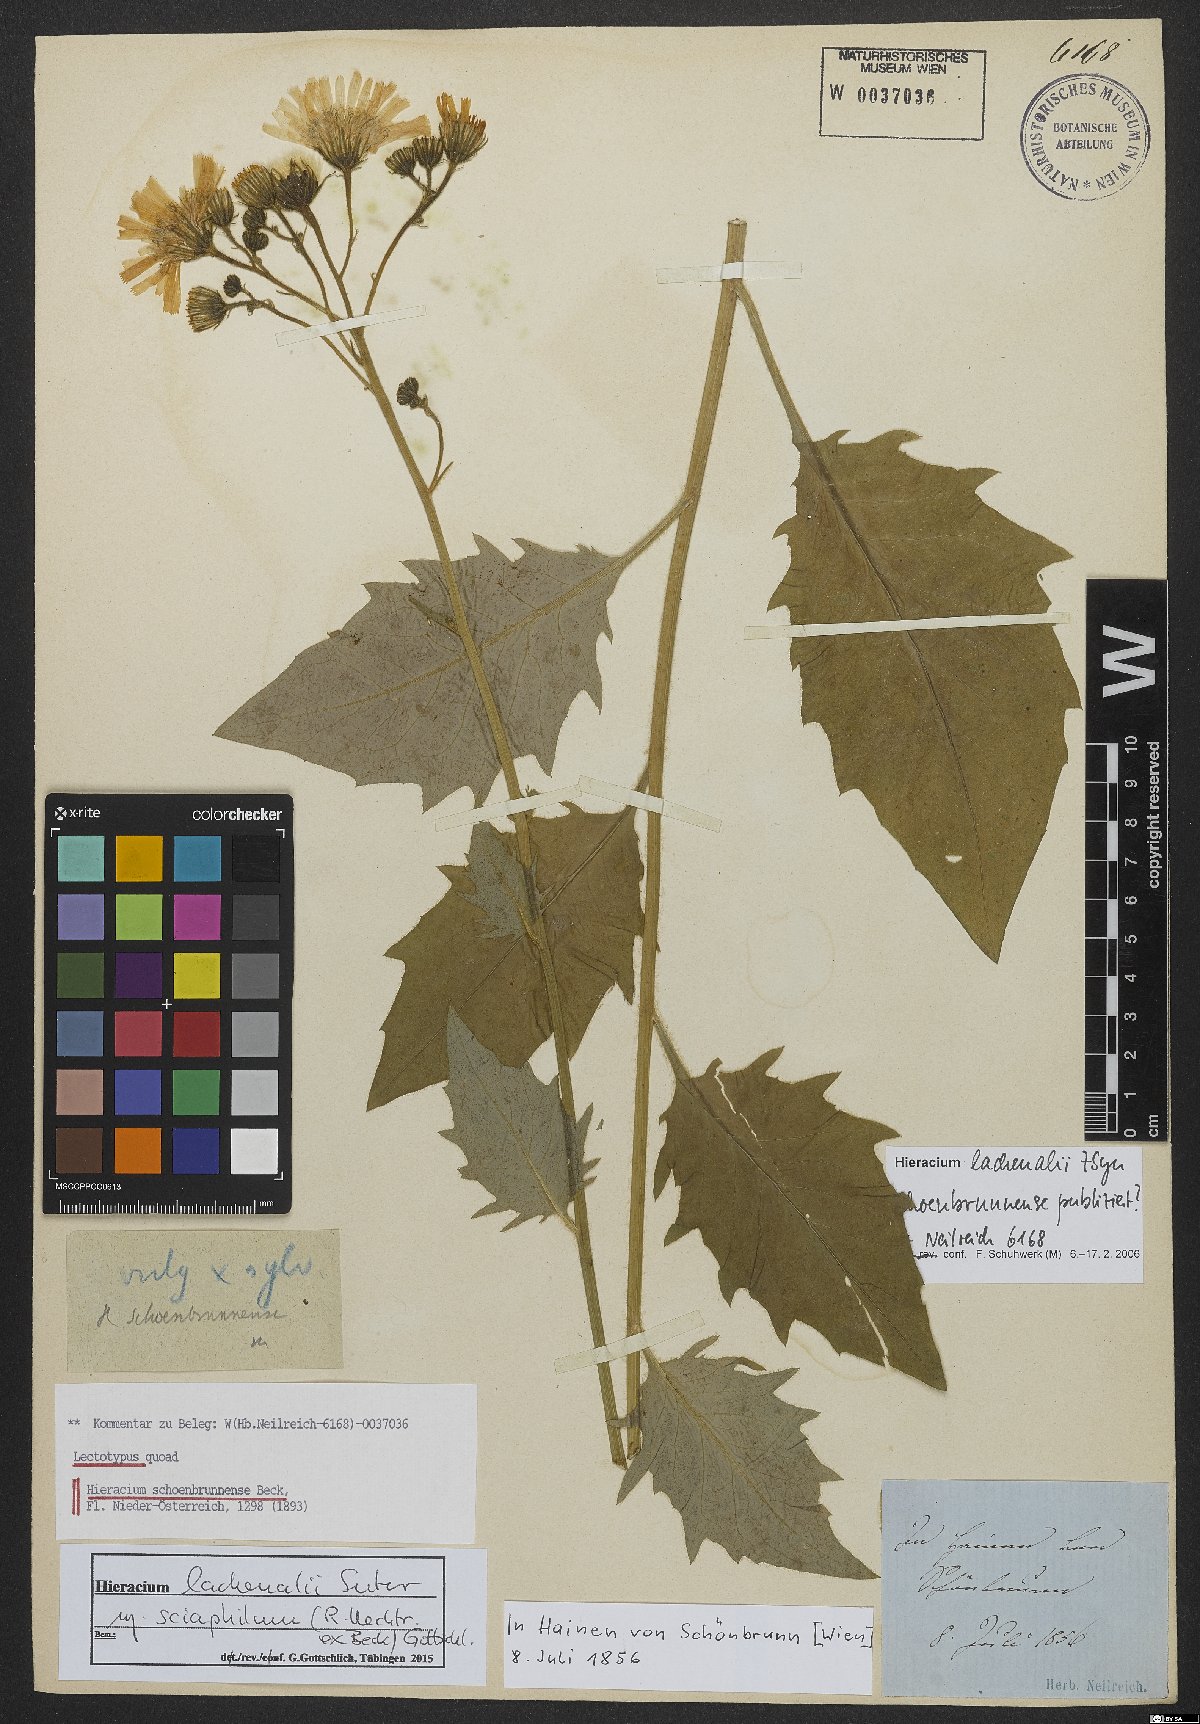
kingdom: Plantae
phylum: Tracheophyta
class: Magnoliopsida
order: Asterales
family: Asteraceae
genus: Hieracium
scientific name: Hieracium lachenalii
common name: Common hawkweed
